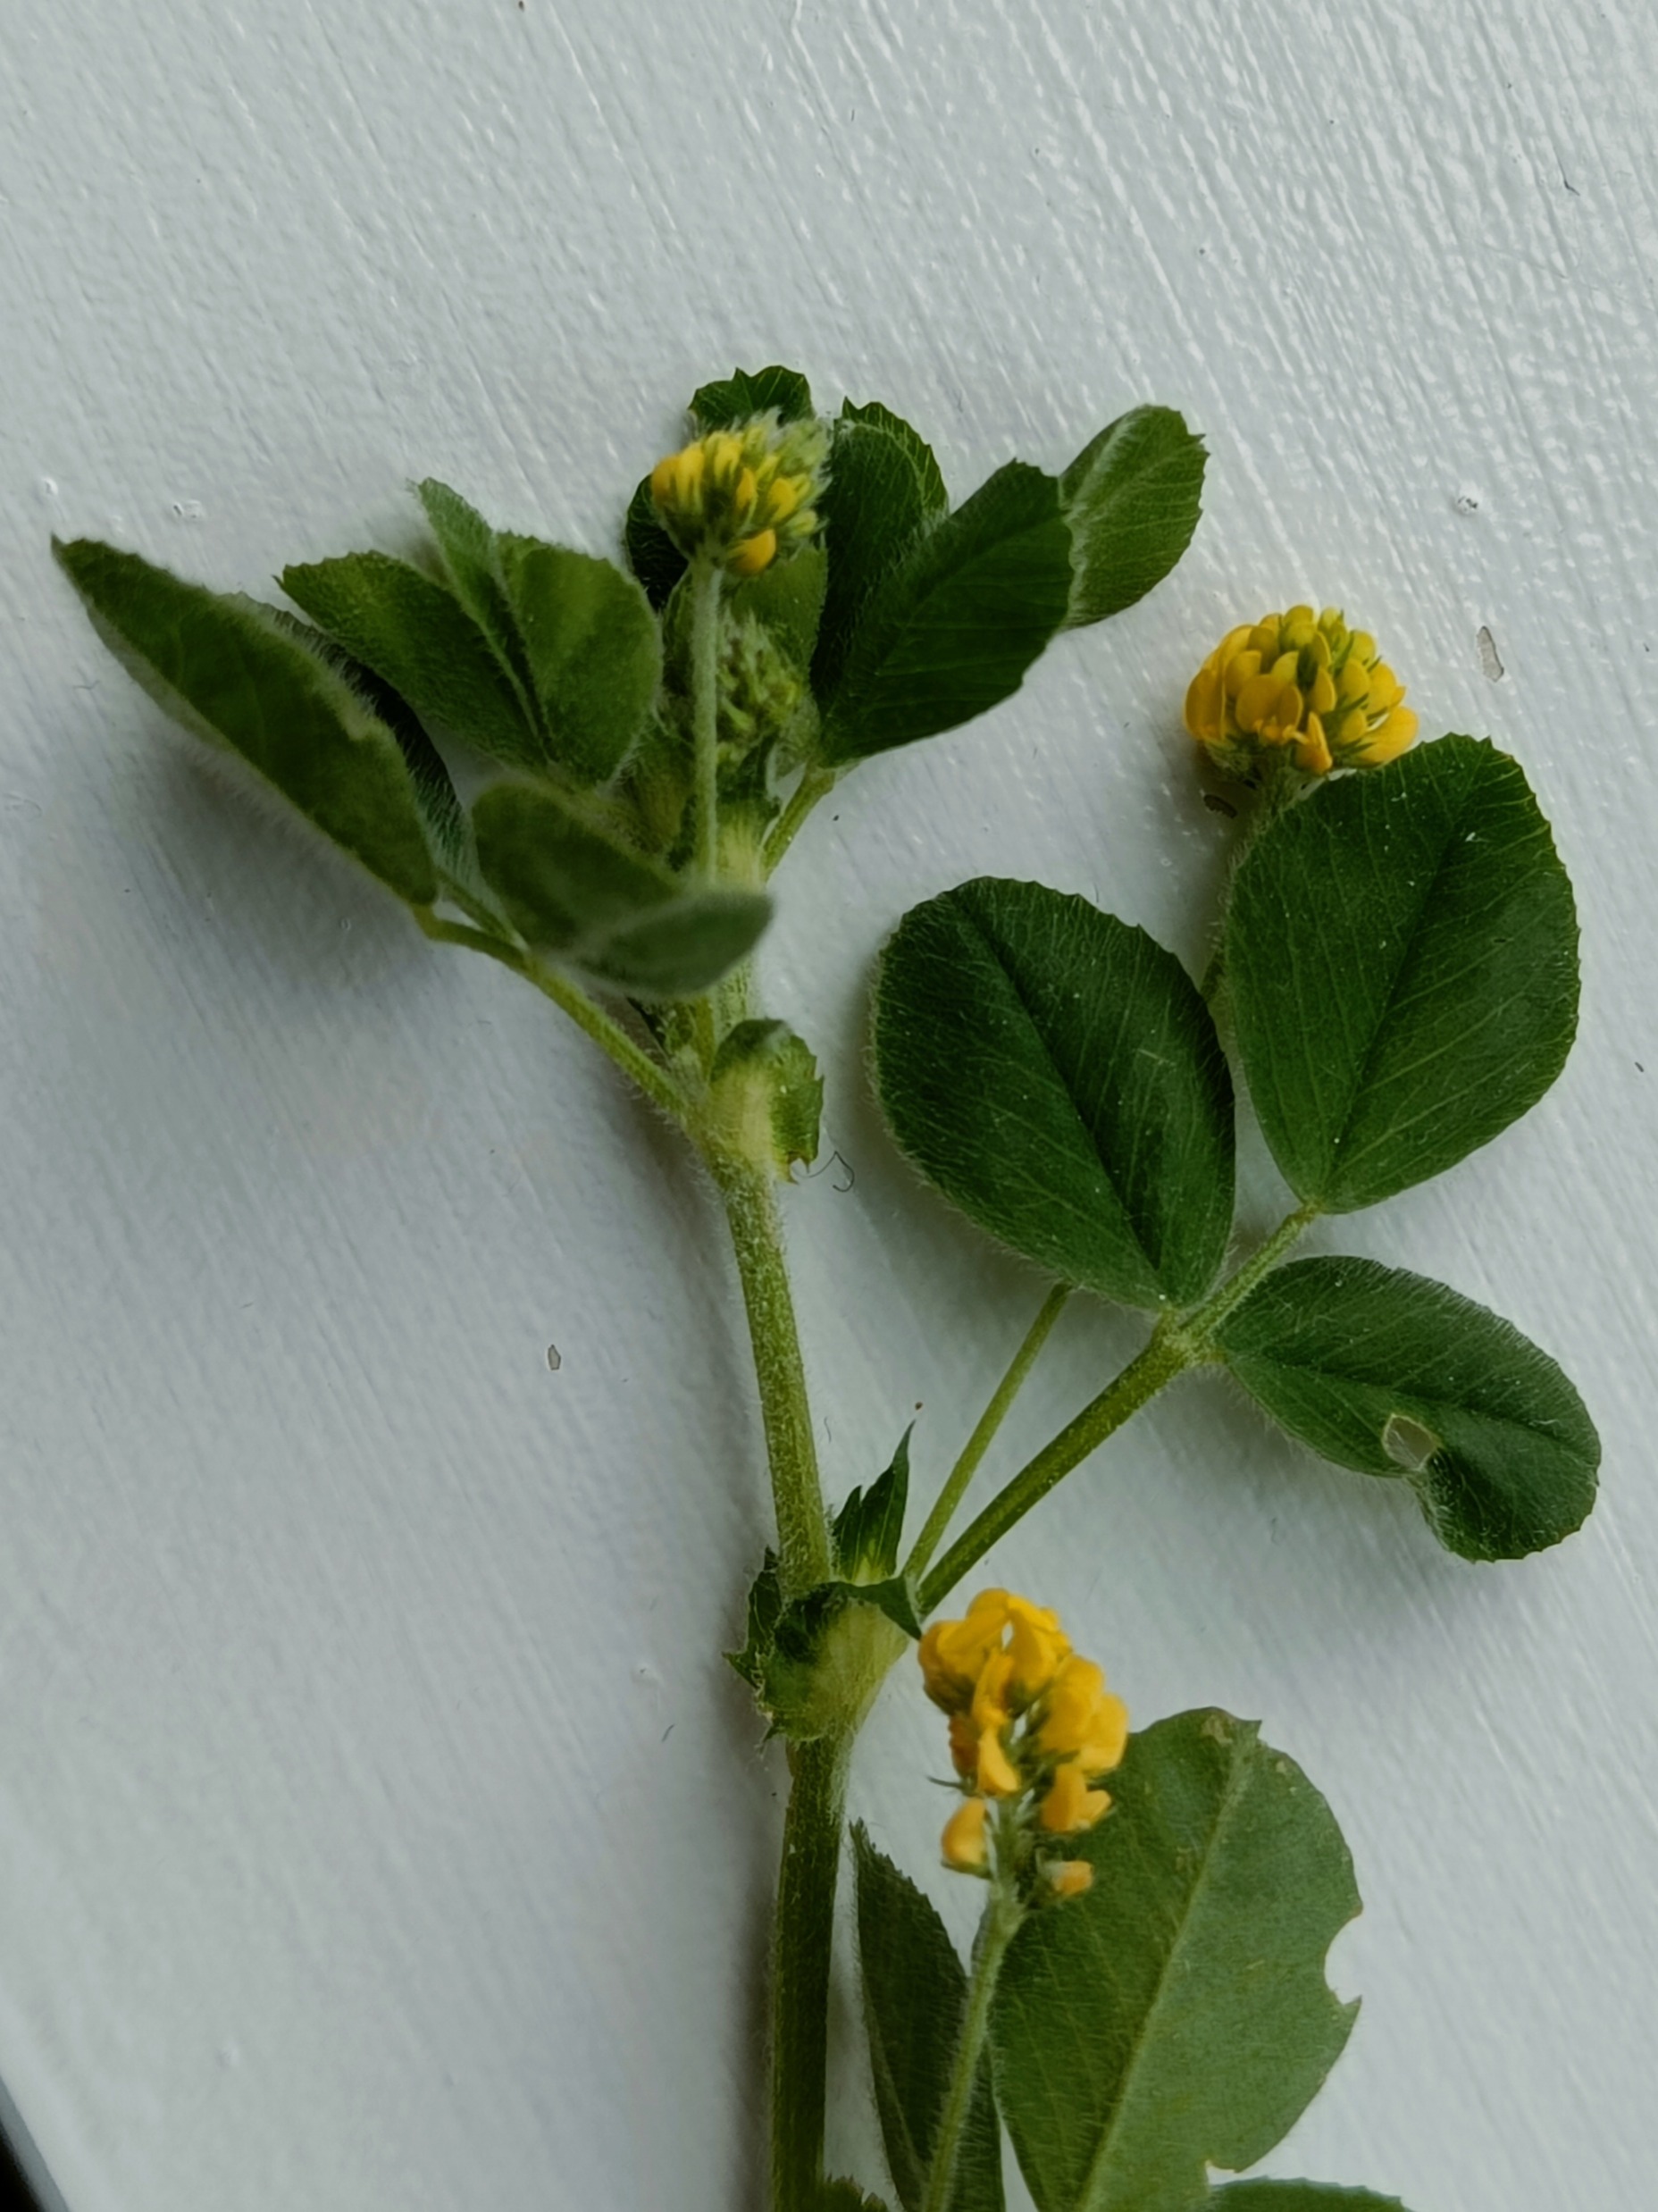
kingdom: Plantae
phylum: Tracheophyta
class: Magnoliopsida
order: Fabales
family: Fabaceae
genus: Medicago
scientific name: Medicago lupulina
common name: Humle-sneglebælg
